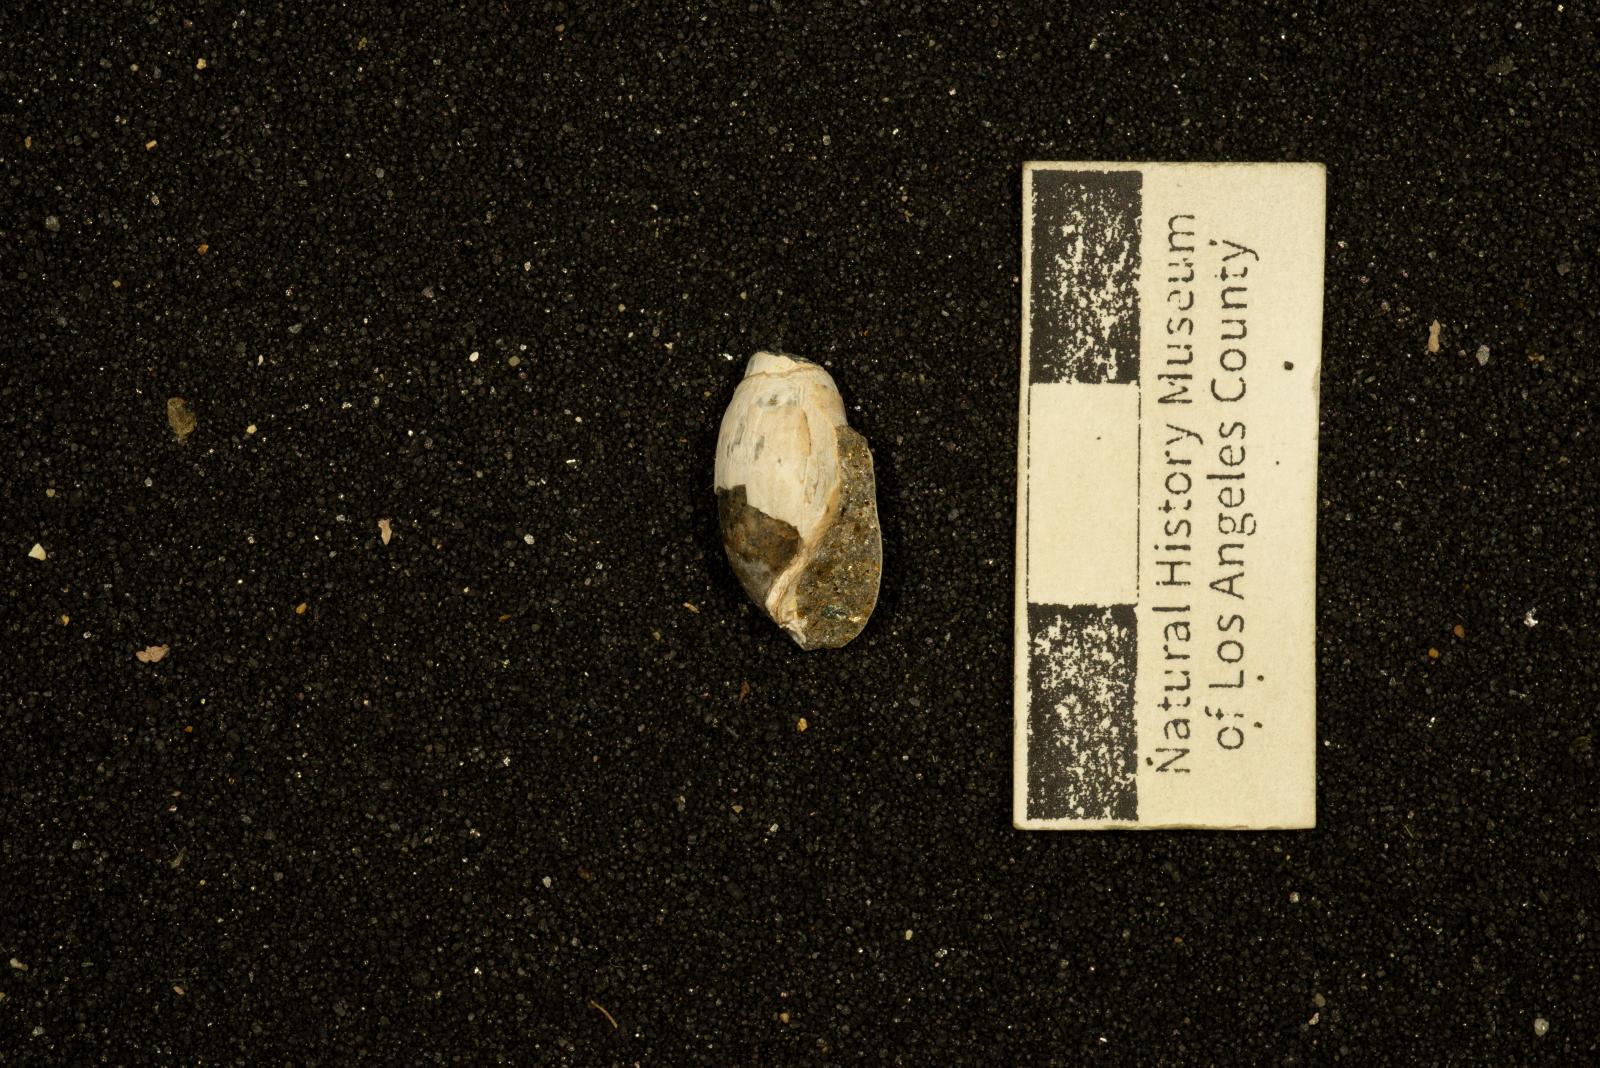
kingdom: Animalia
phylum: Mollusca
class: Gastropoda
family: Acteoninidae
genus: Eoacteon
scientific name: Eoacteon
